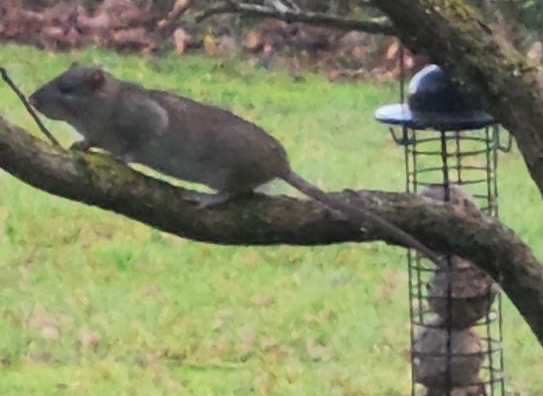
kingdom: Animalia
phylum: Chordata
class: Mammalia
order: Rodentia
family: Muridae
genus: Rattus
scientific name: Rattus norvegicus
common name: Brun rotte
